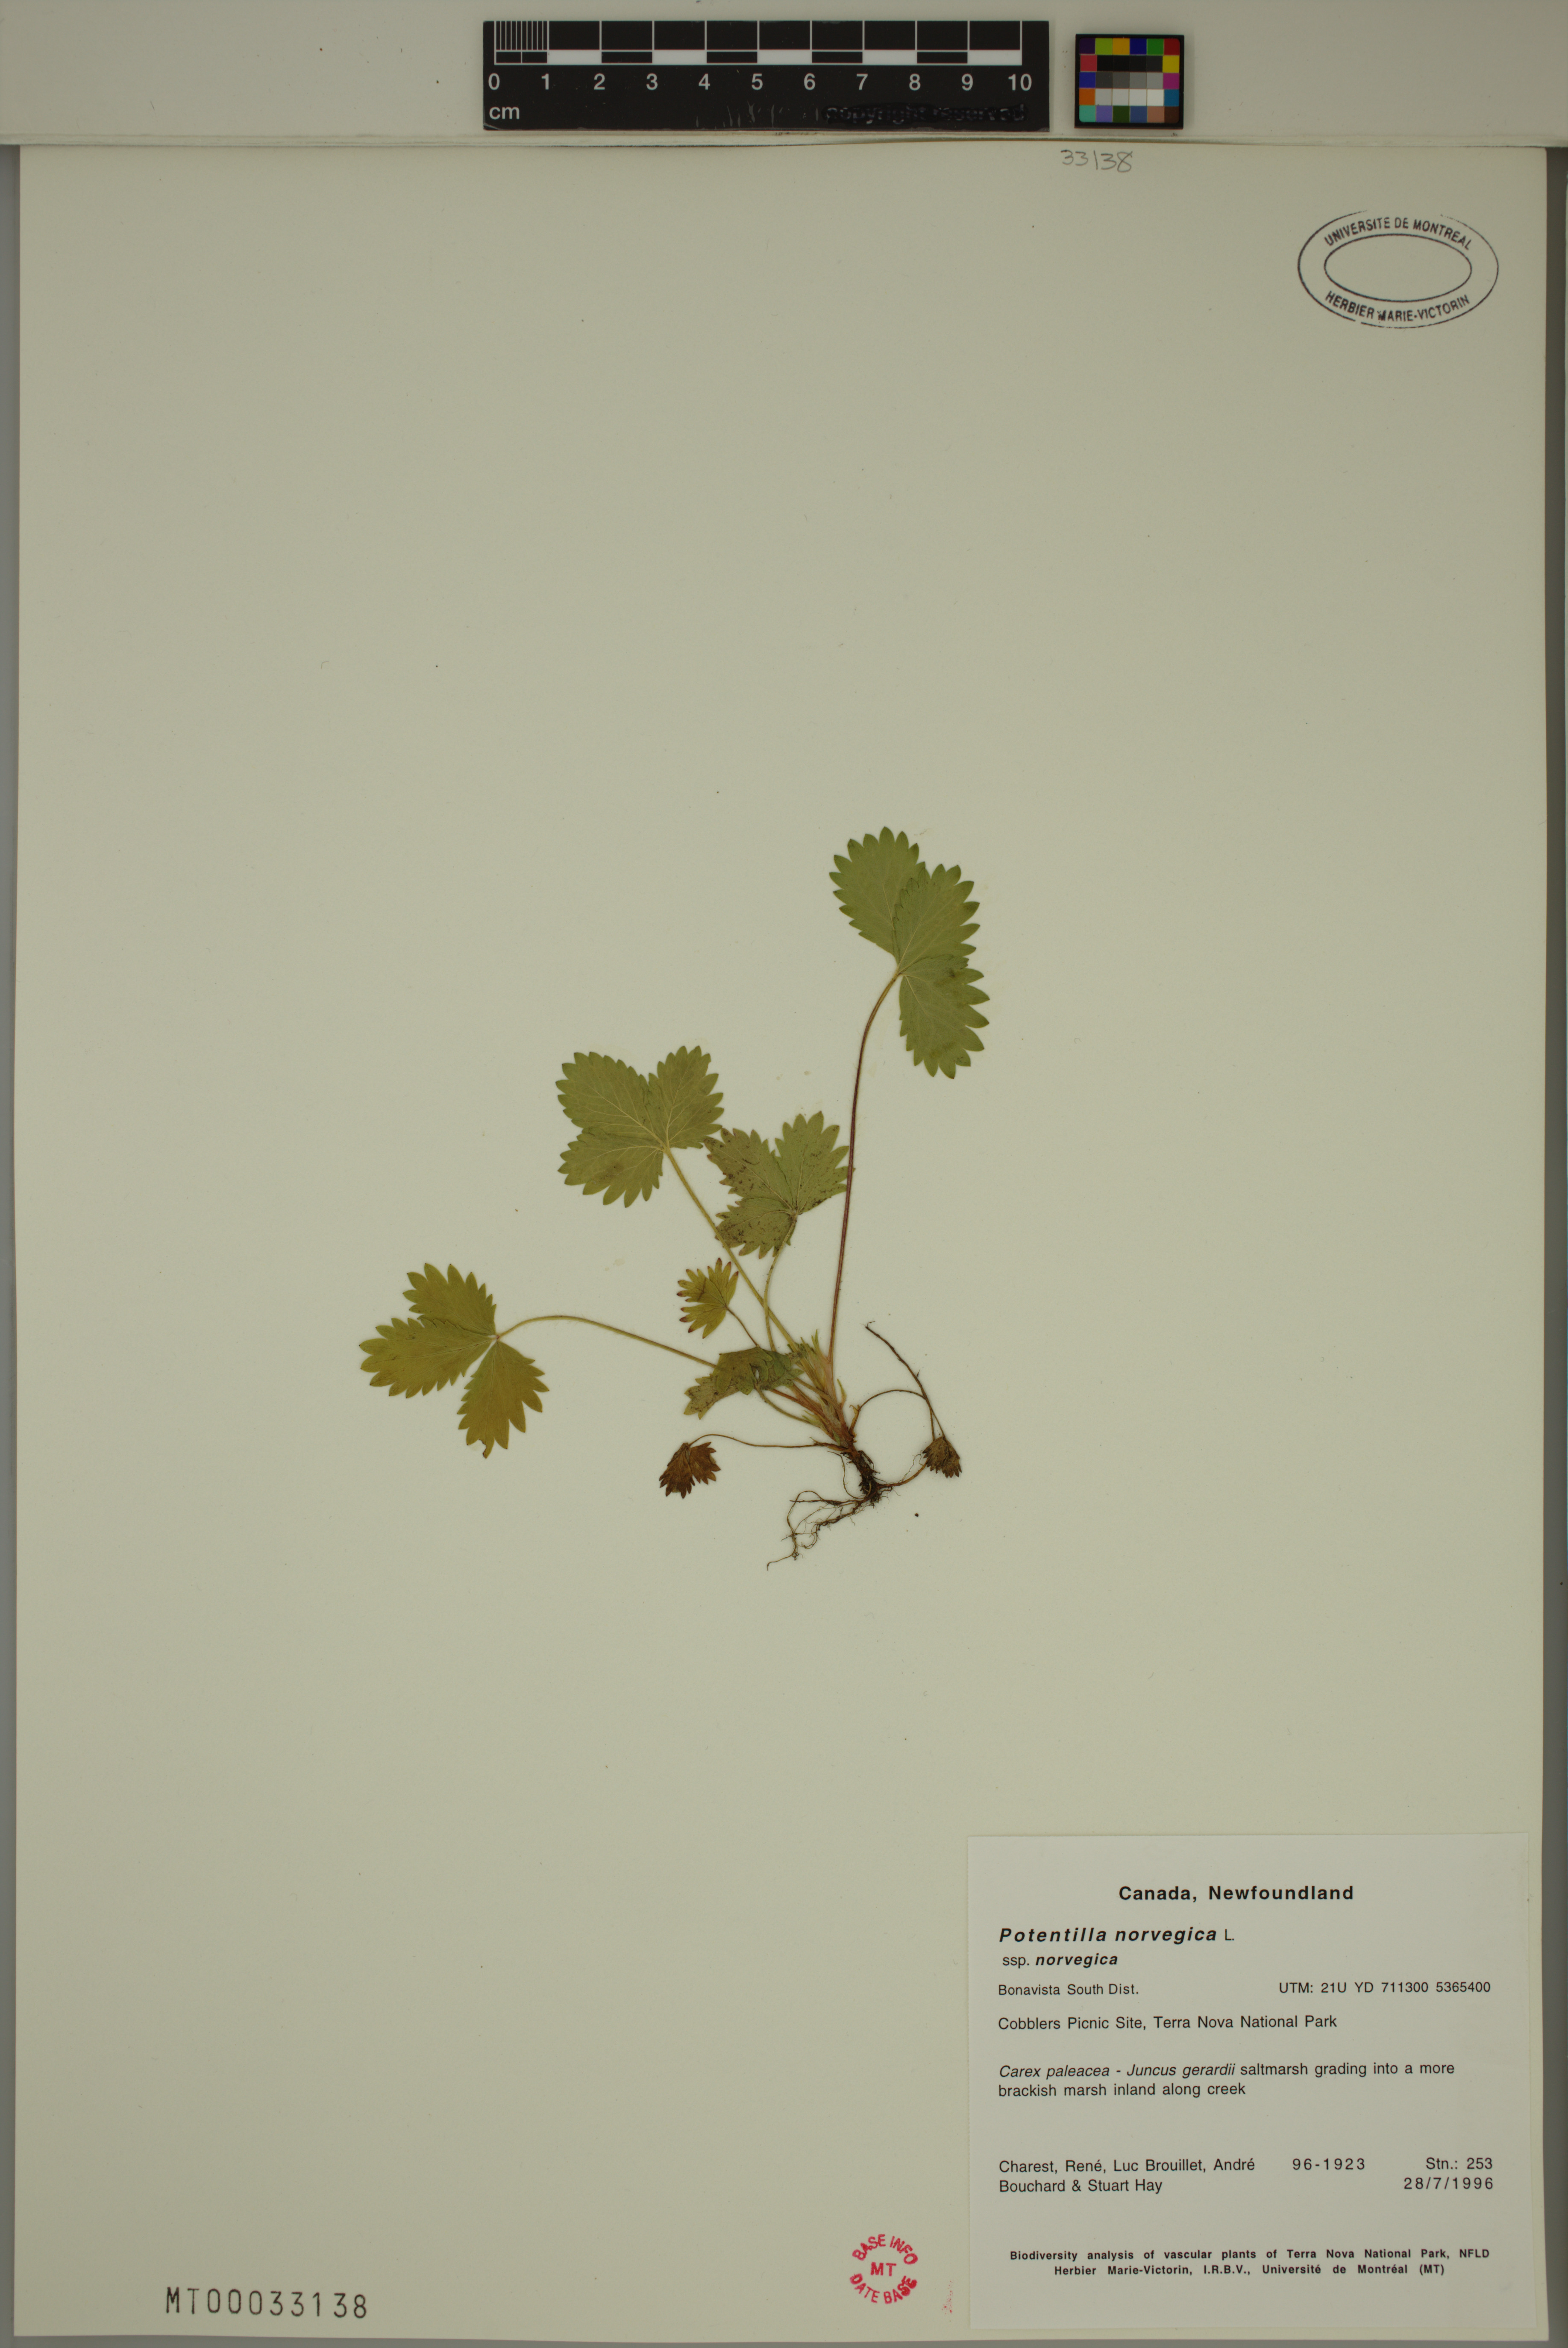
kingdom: Plantae
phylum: Tracheophyta
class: Magnoliopsida
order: Rosales
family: Rosaceae
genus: Potentilla
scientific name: Potentilla norvegica
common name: Ternate-leaved cinquefoil
